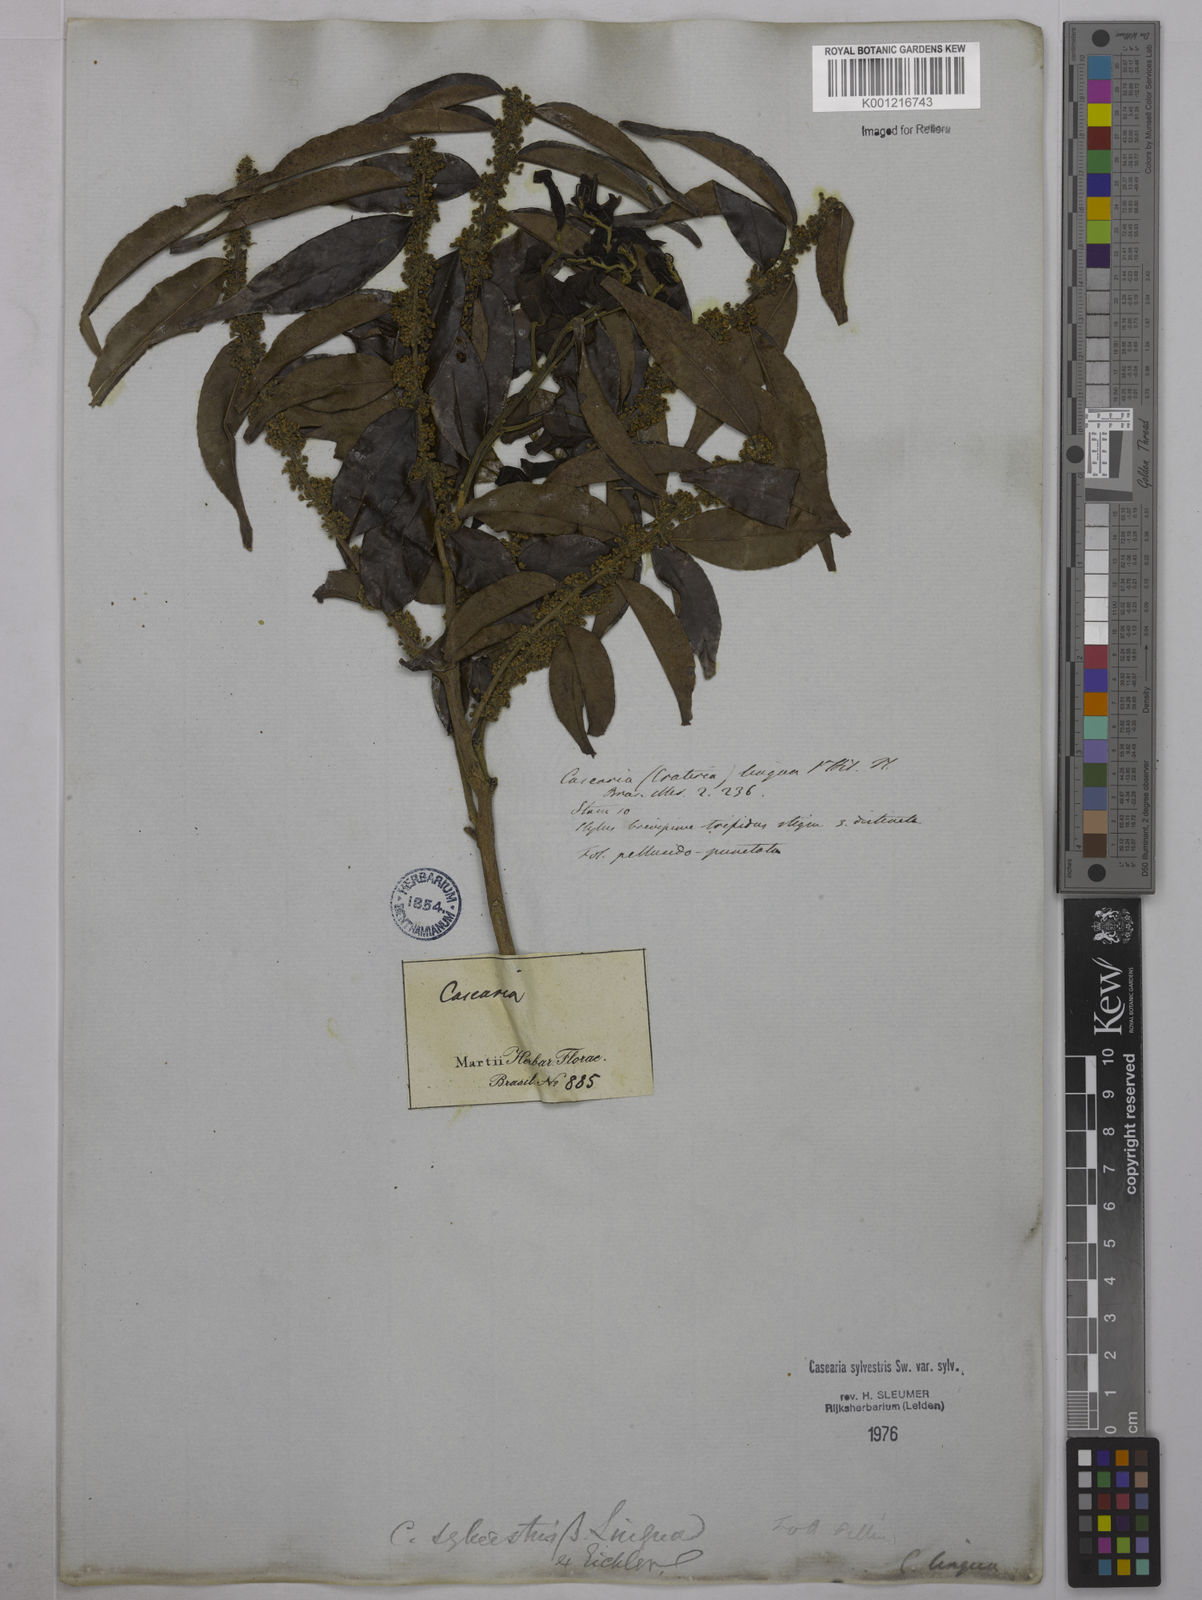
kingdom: Plantae
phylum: Tracheophyta
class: Magnoliopsida
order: Malpighiales
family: Salicaceae
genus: Casearia
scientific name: Casearia sylvestris
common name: Wild sage
